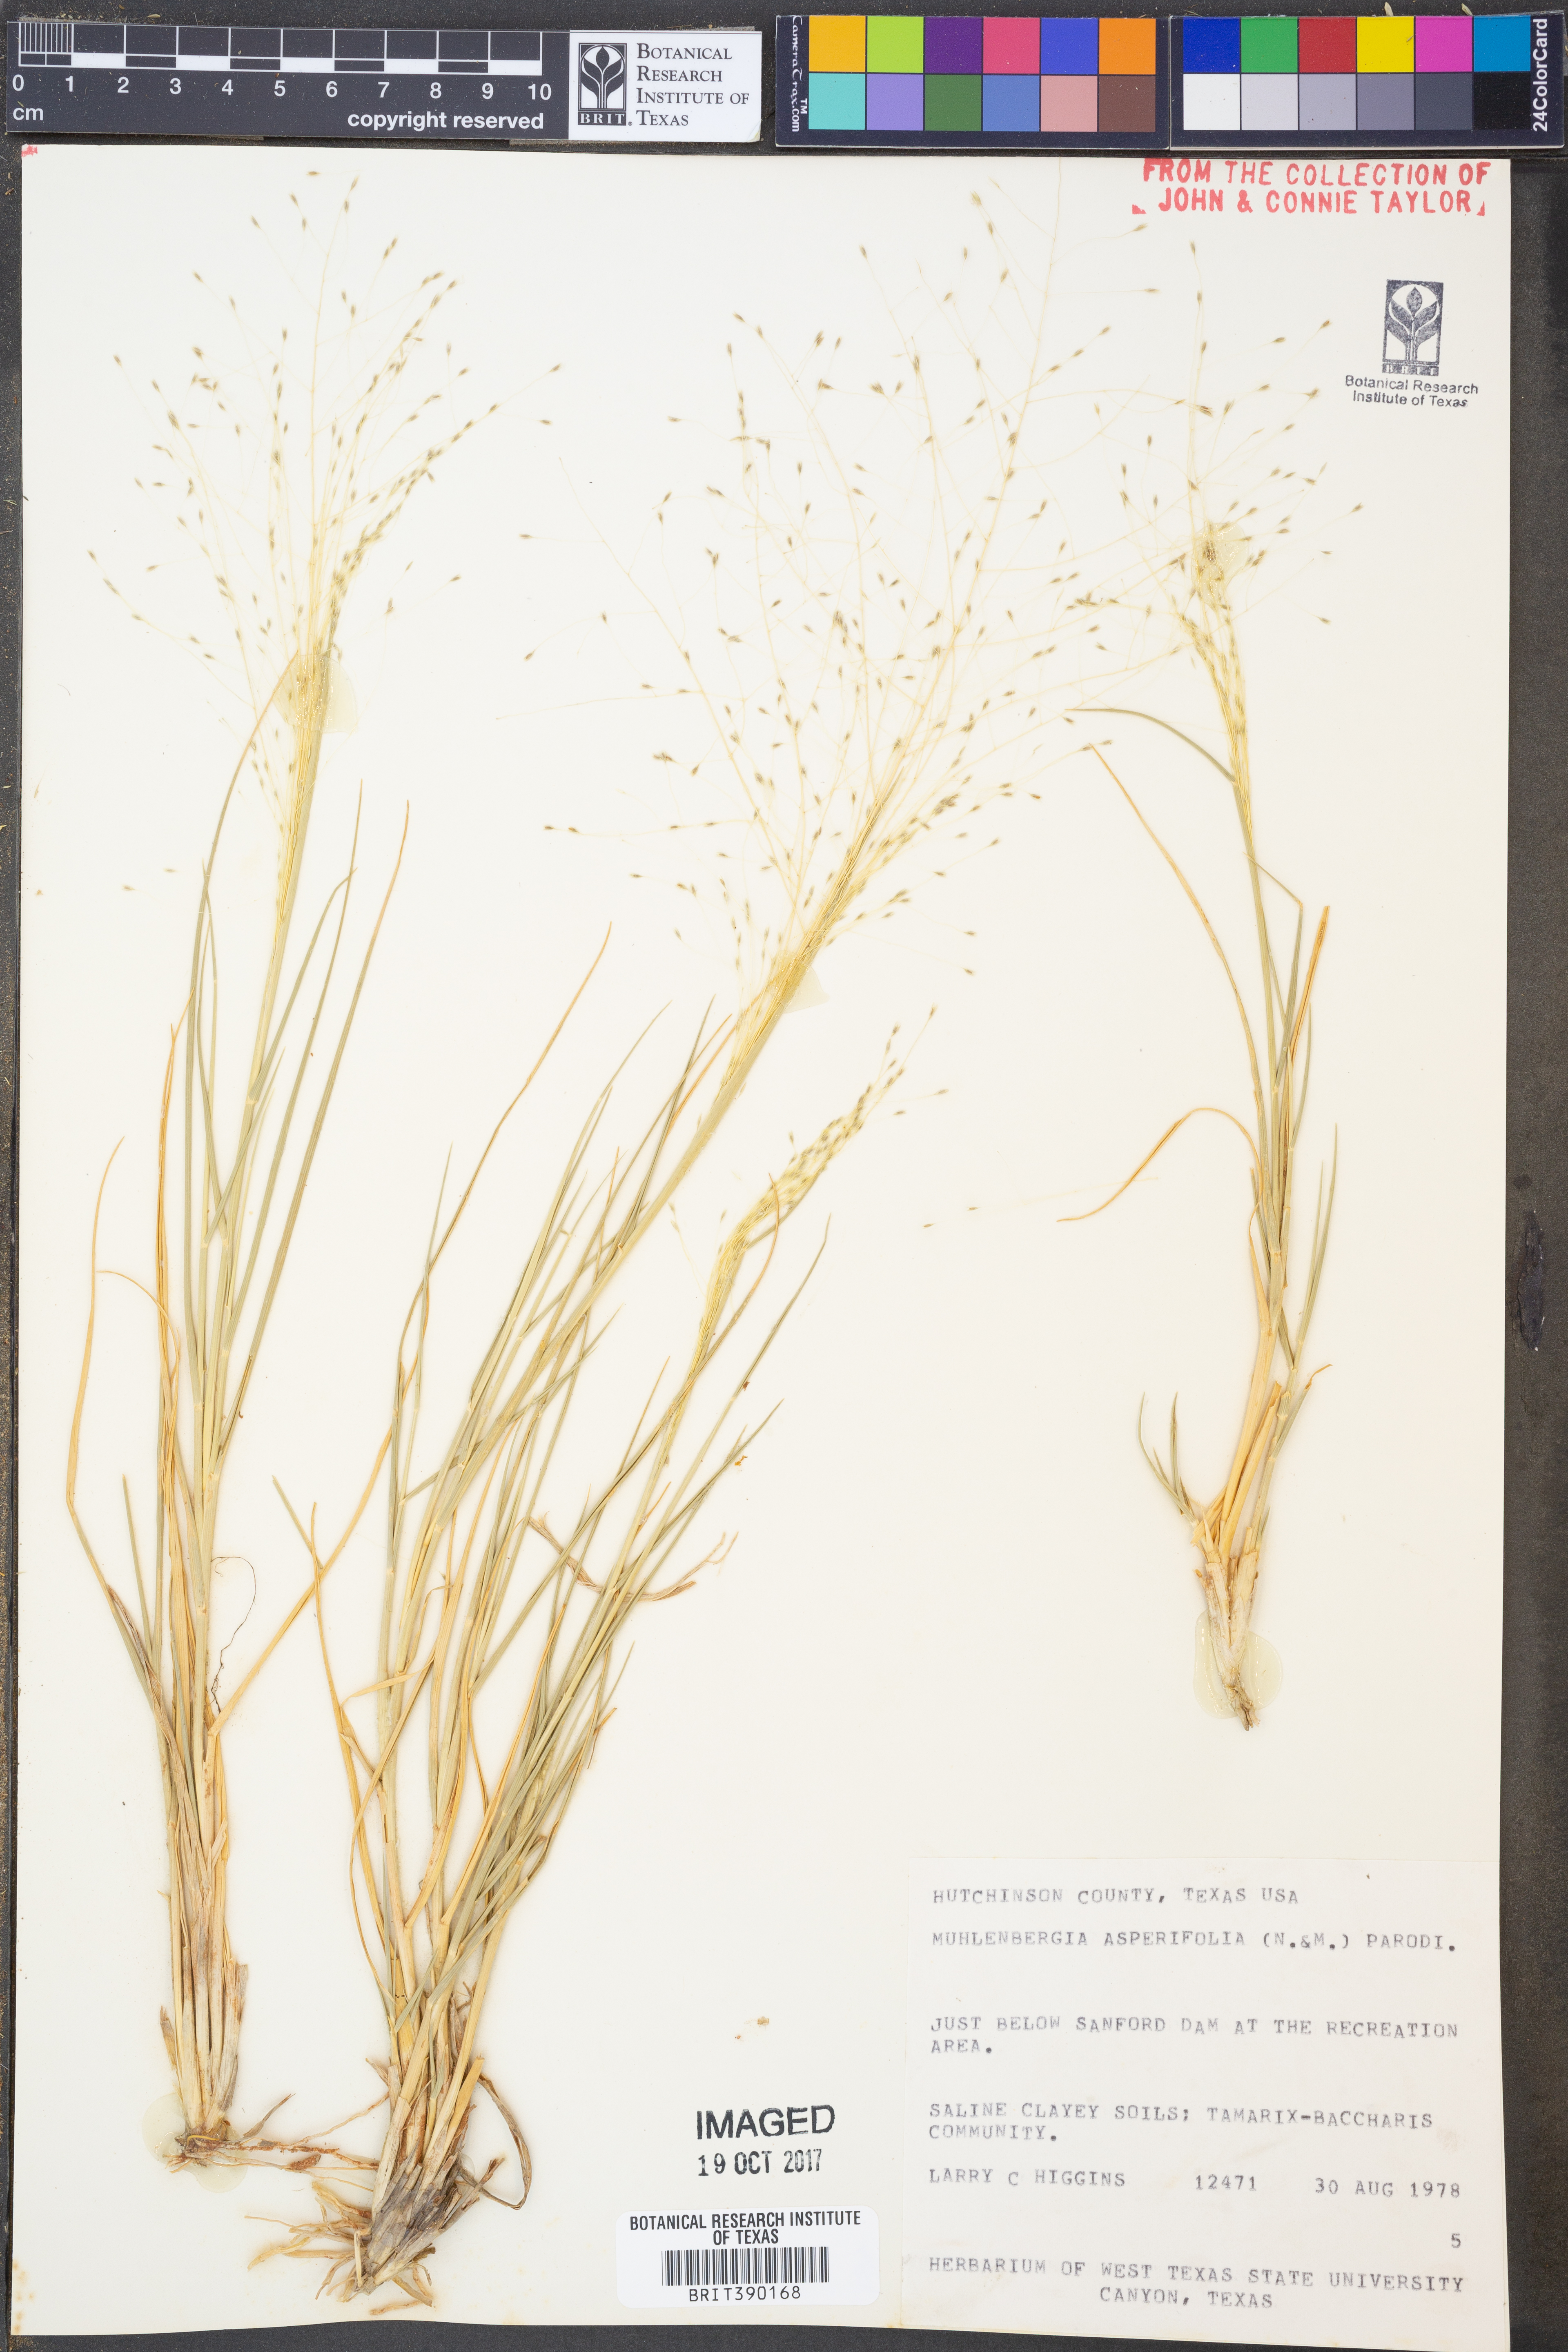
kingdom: Plantae
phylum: Tracheophyta
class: Liliopsida
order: Poales
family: Poaceae
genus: Muhlenbergia
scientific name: Muhlenbergia asperifolia
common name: Alkali muhly
